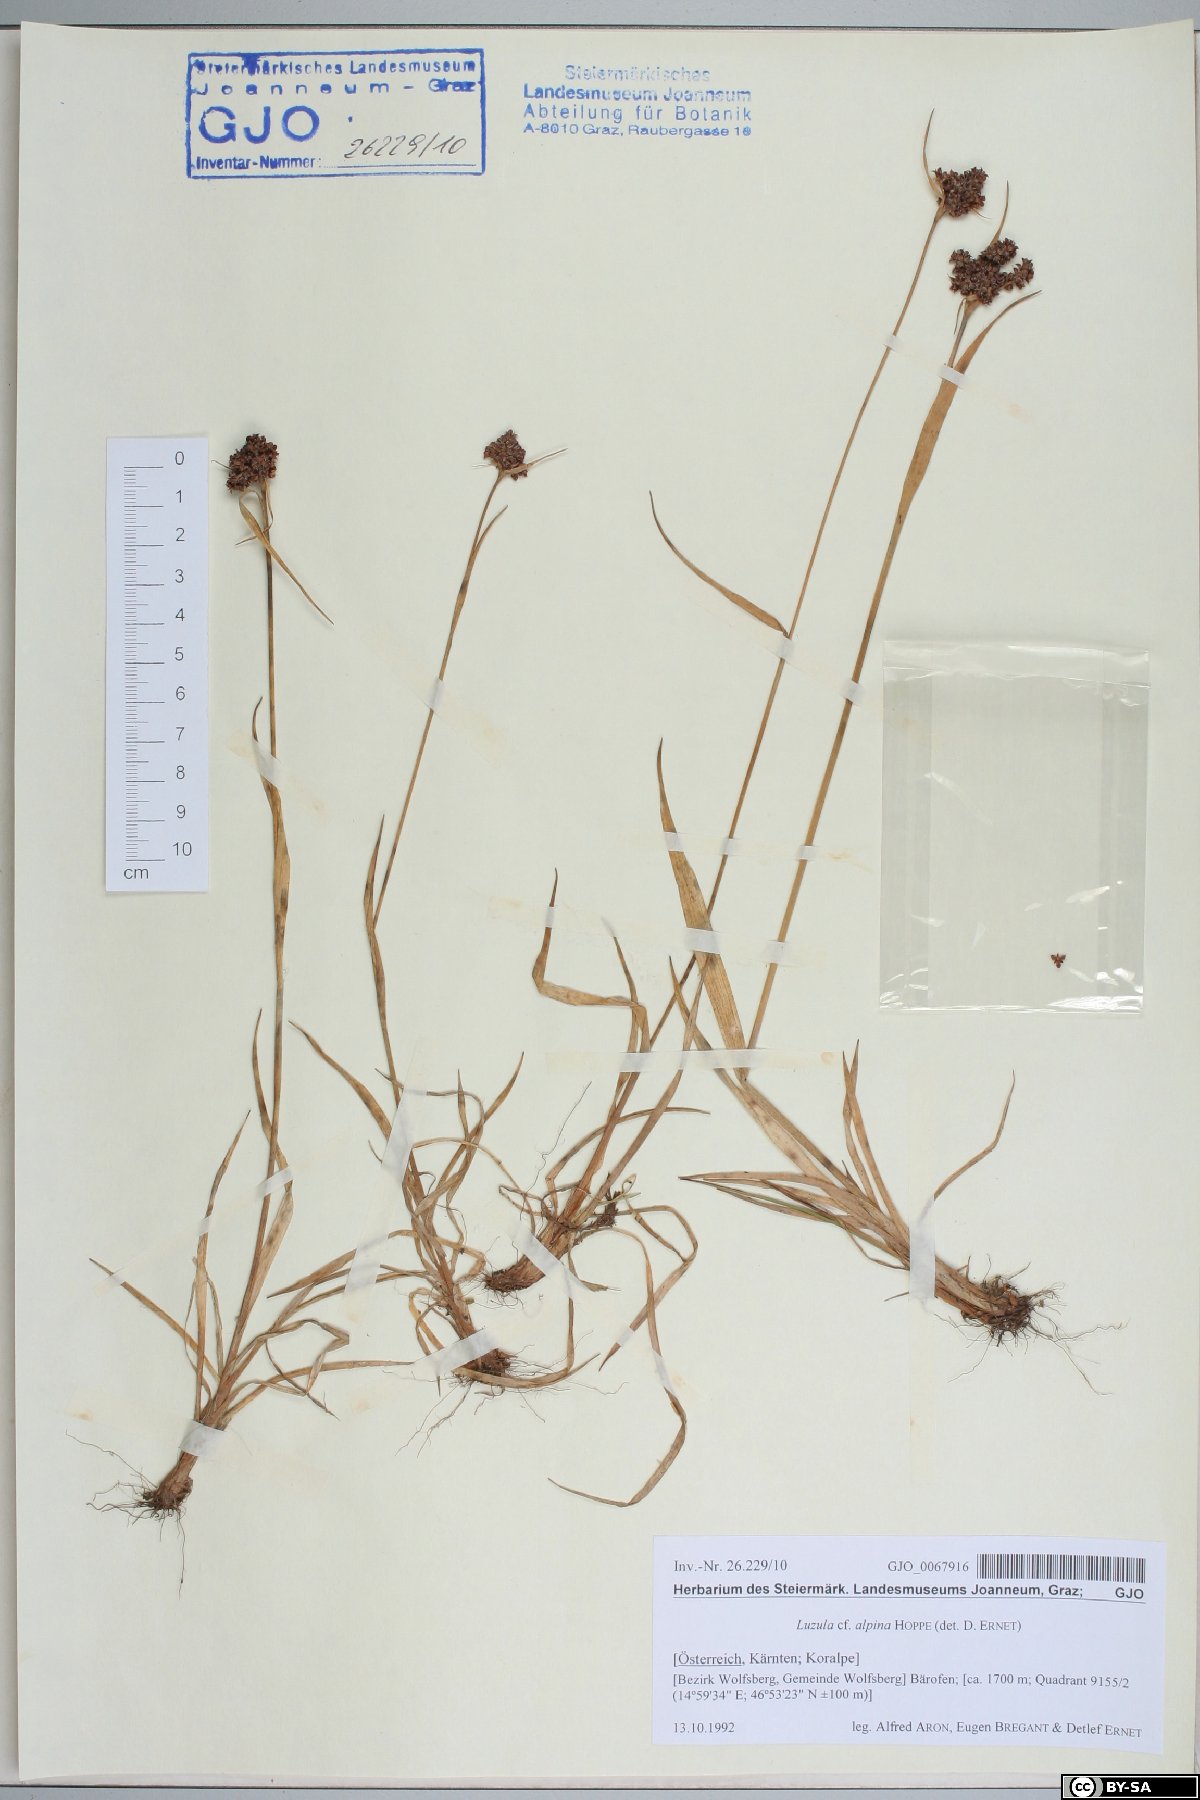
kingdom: Plantae
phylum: Tracheophyta
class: Liliopsida
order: Poales
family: Juncaceae
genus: Luzula
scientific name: Luzula alpina
